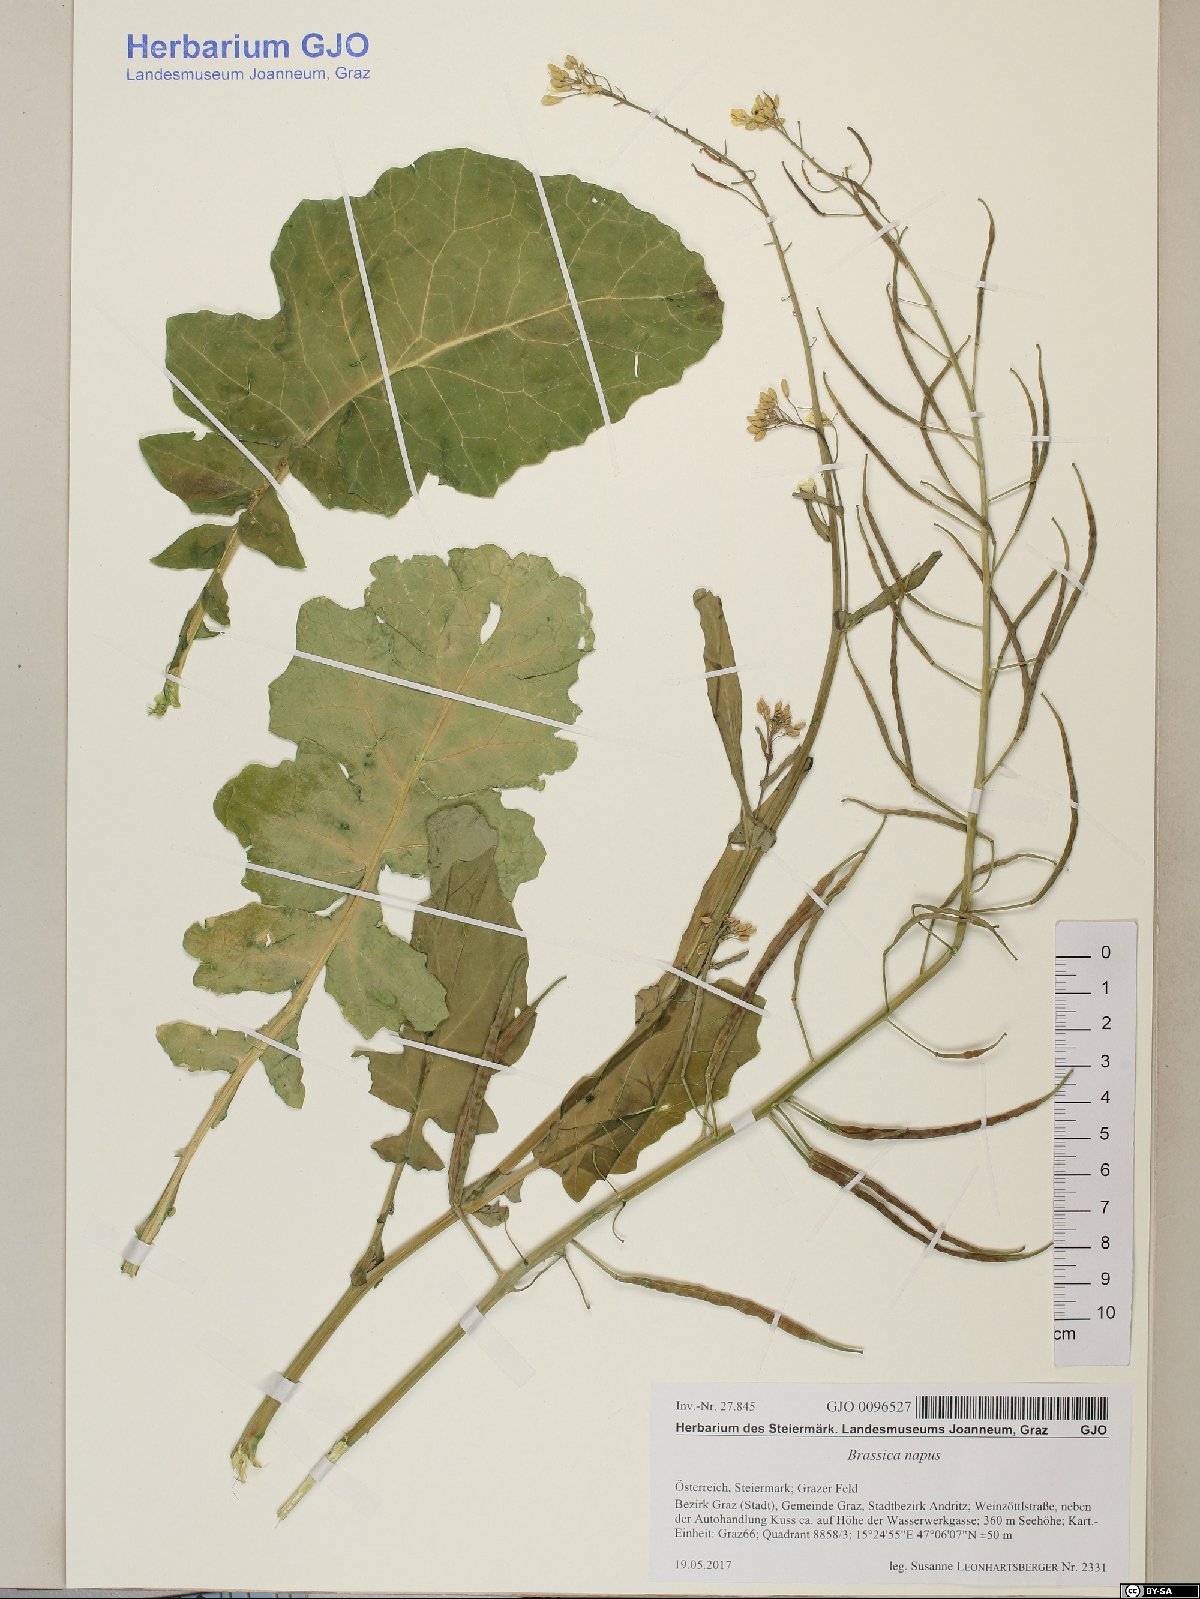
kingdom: Plantae
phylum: Tracheophyta
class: Magnoliopsida
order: Brassicales
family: Brassicaceae
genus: Brassica
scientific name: Brassica napus
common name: Rape
